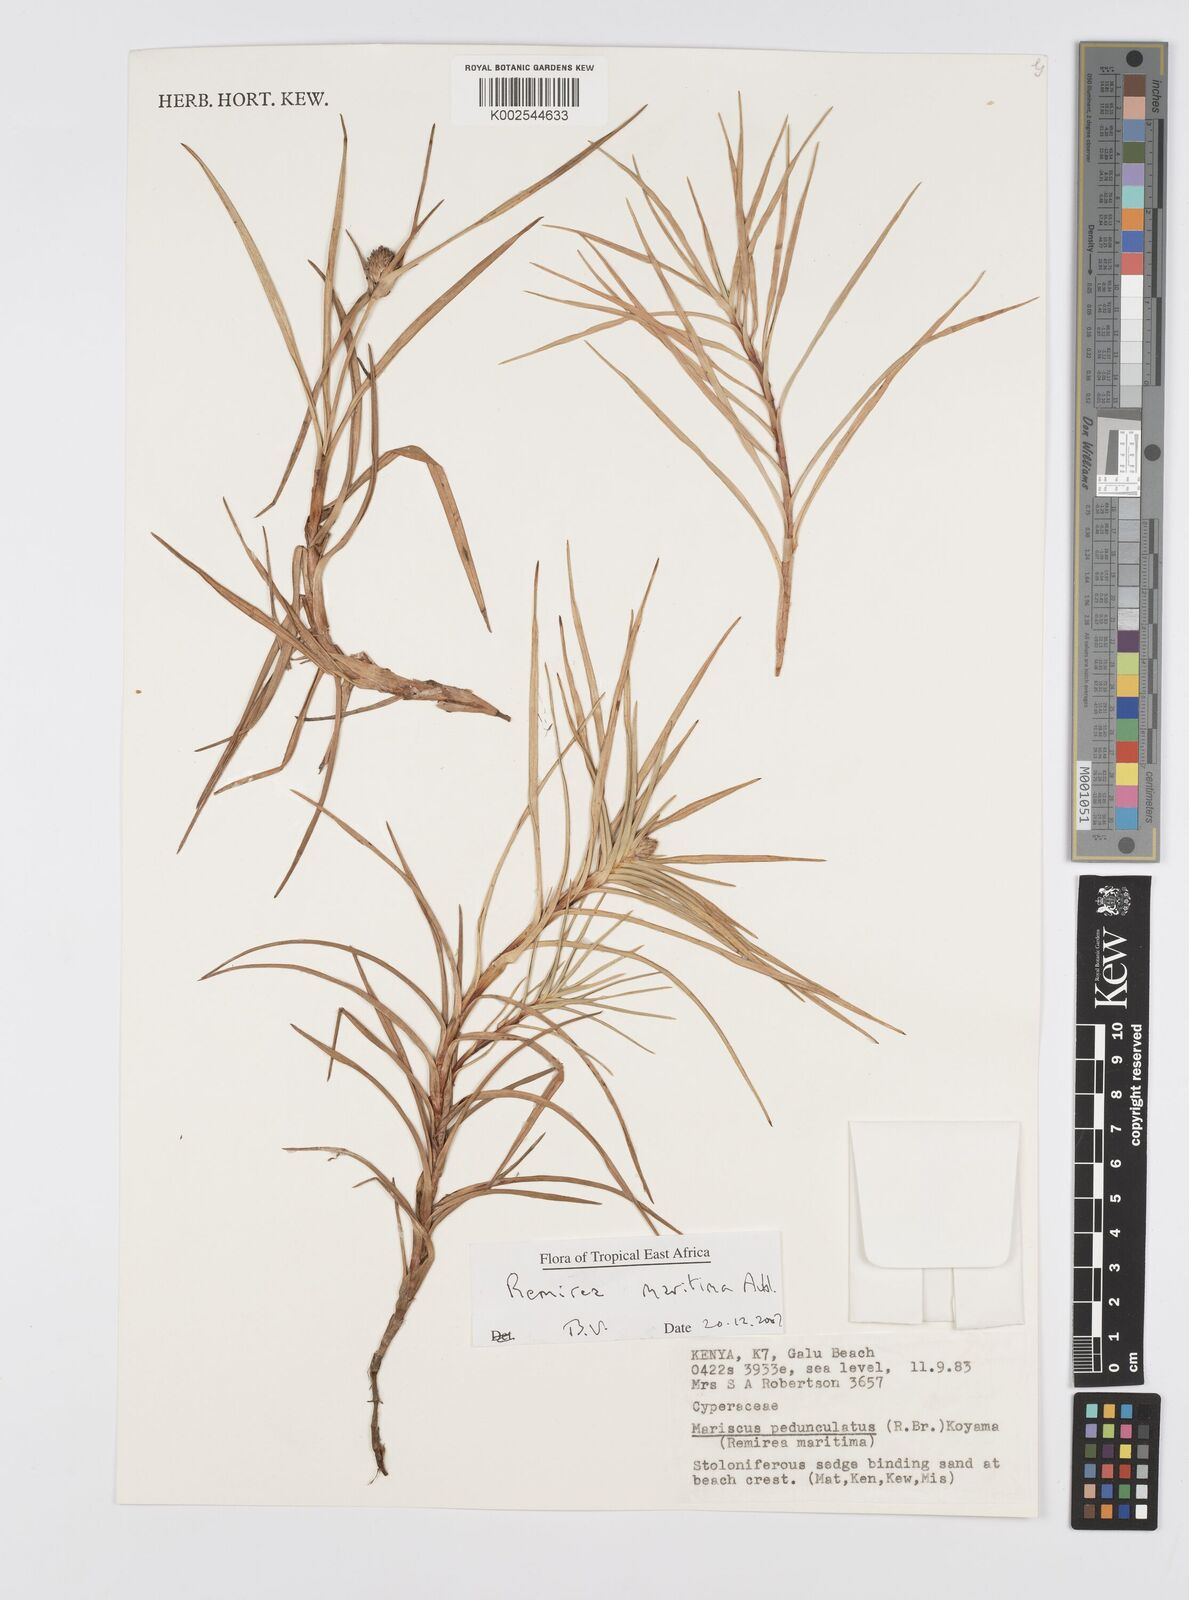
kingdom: Plantae
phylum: Tracheophyta
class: Liliopsida
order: Poales
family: Cyperaceae
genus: Cyperus
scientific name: Cyperus
